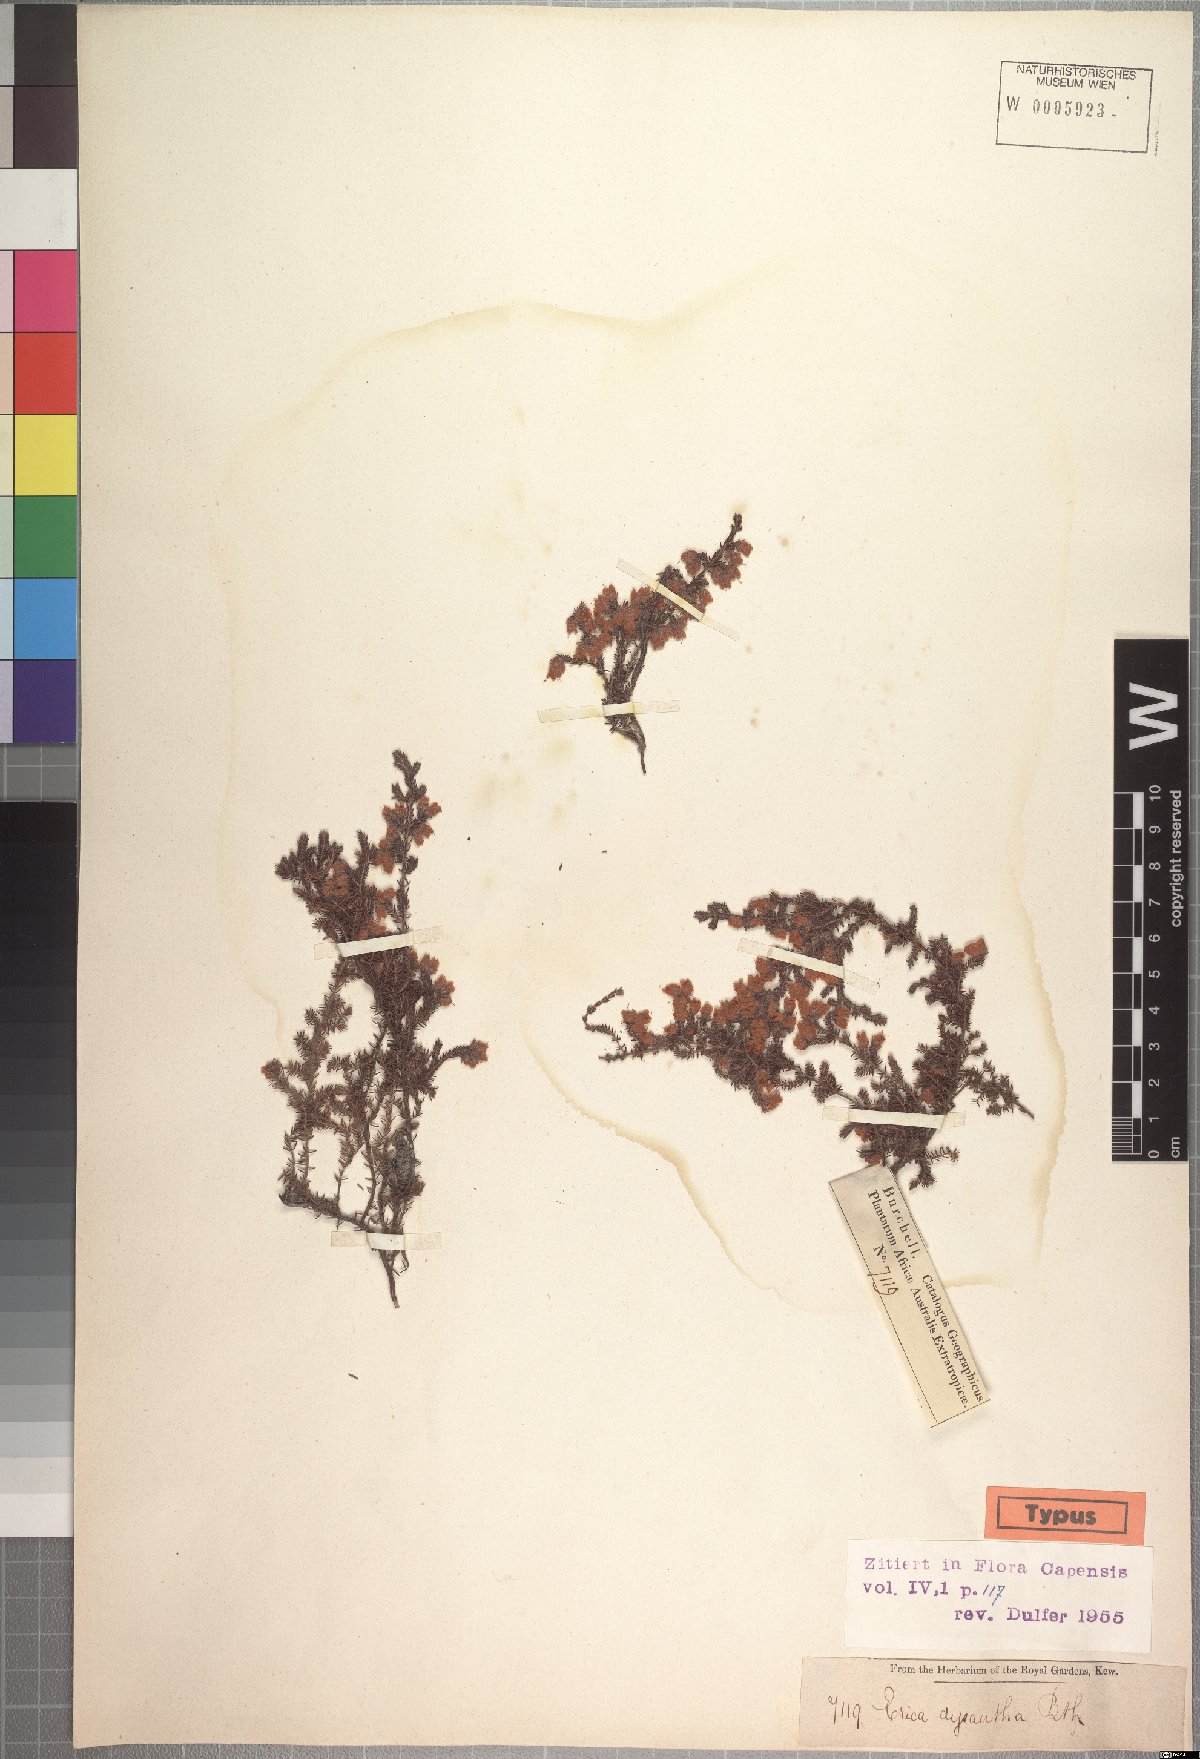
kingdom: Plantae
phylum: Tracheophyta
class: Magnoliopsida
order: Ericales
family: Ericaceae
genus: Erica
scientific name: Erica dysantha
